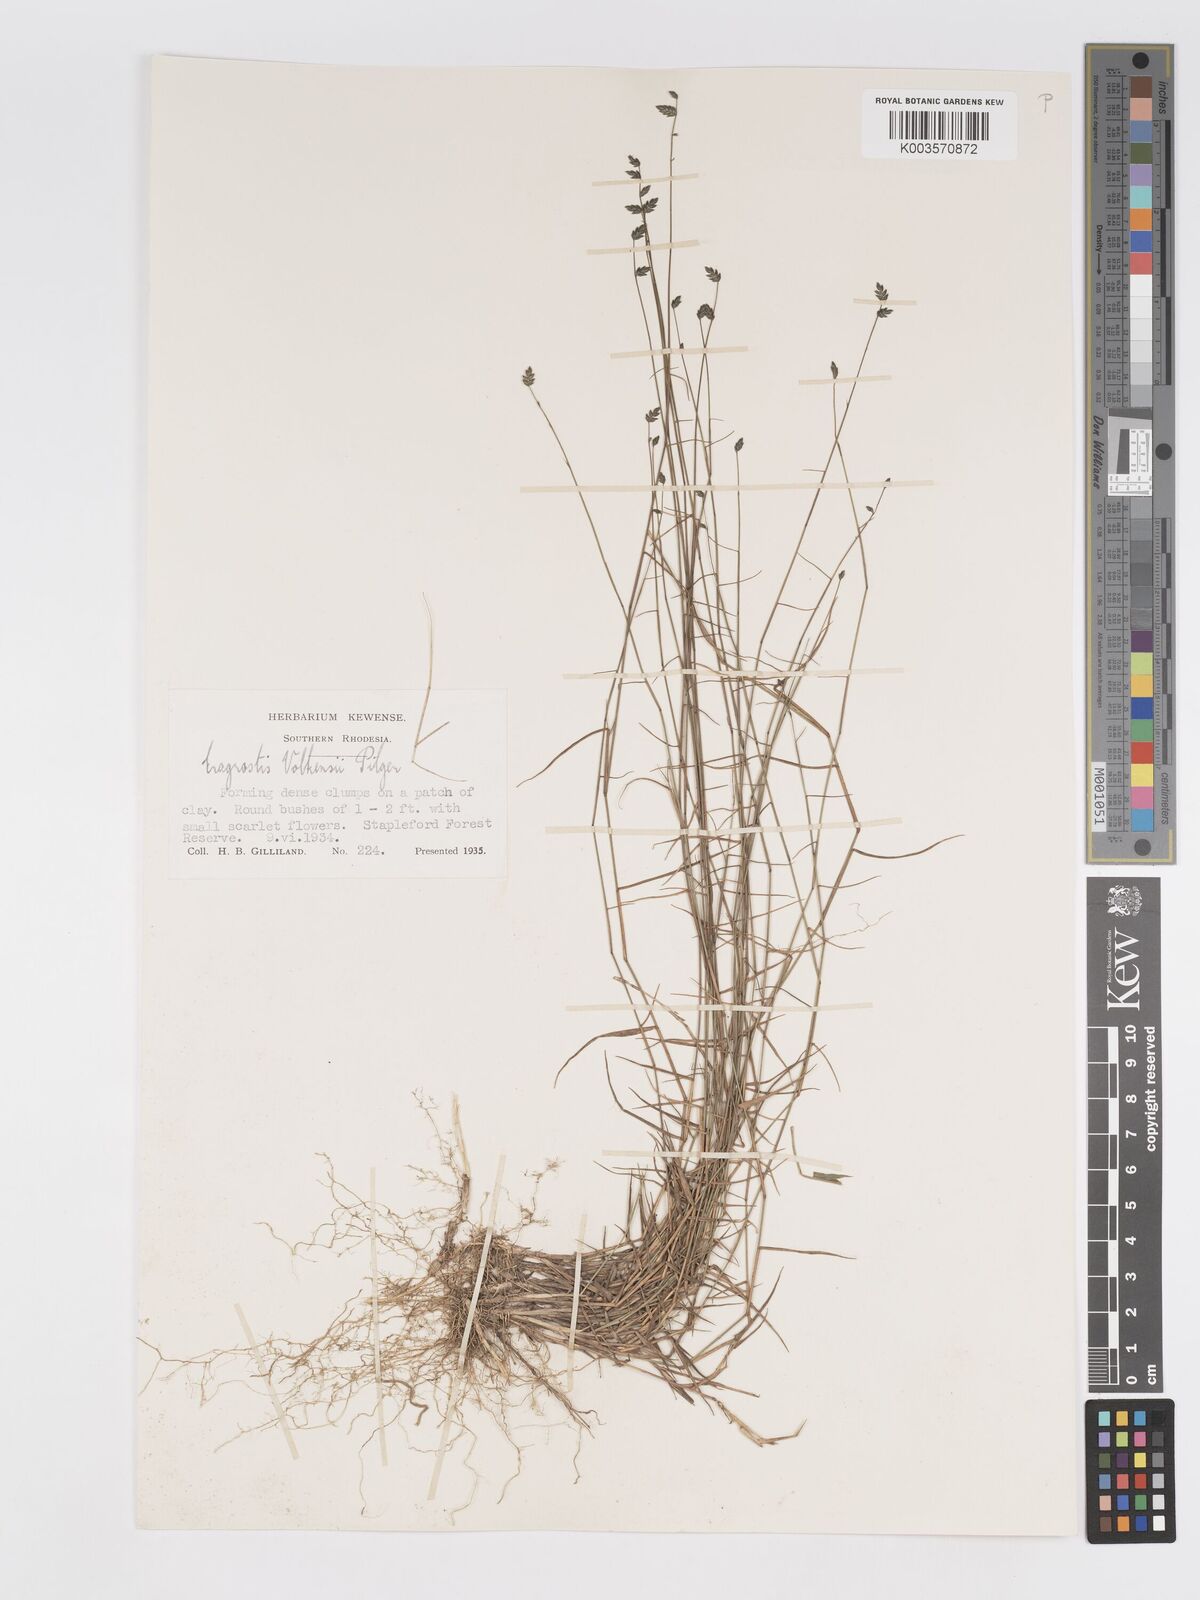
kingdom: Plantae
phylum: Tracheophyta
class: Liliopsida
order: Poales
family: Poaceae
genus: Eragrostis
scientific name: Eragrostis volkensii
